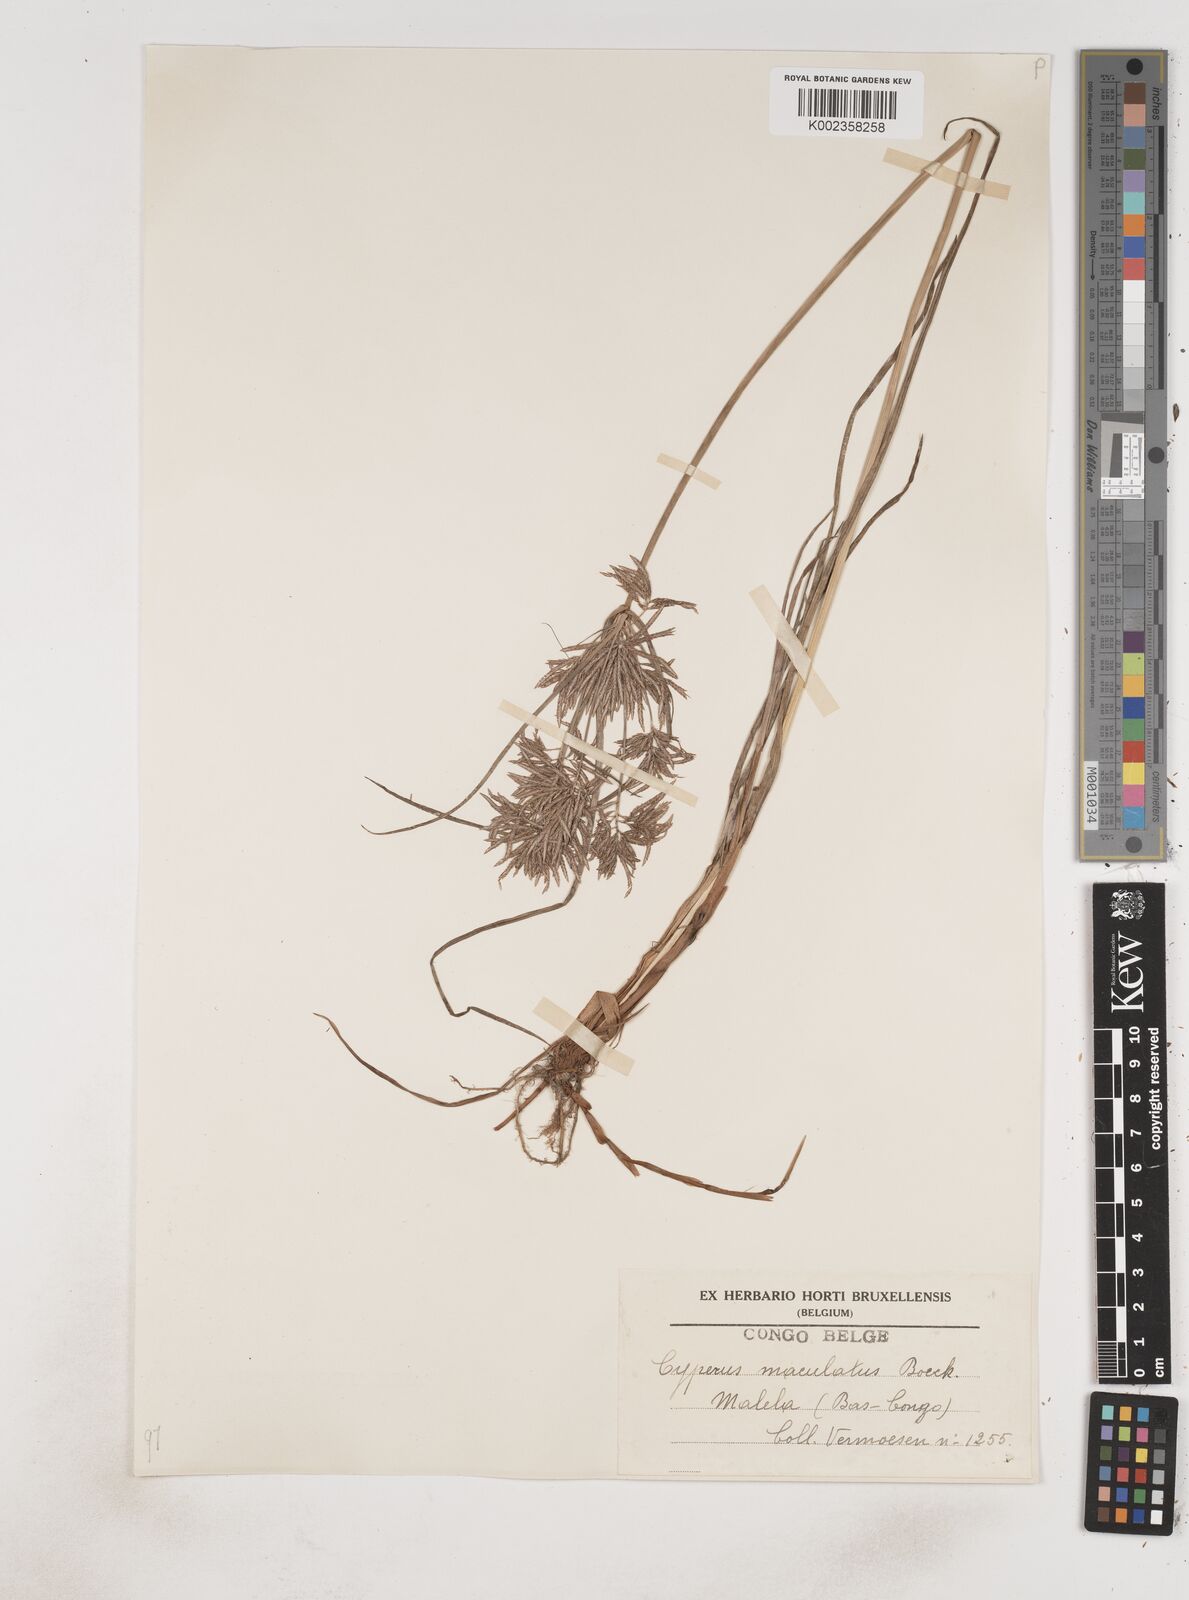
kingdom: Plantae
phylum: Tracheophyta
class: Liliopsida
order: Poales
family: Cyperaceae
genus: Cyperus
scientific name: Cyperus maculatus
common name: Maculated sedge
